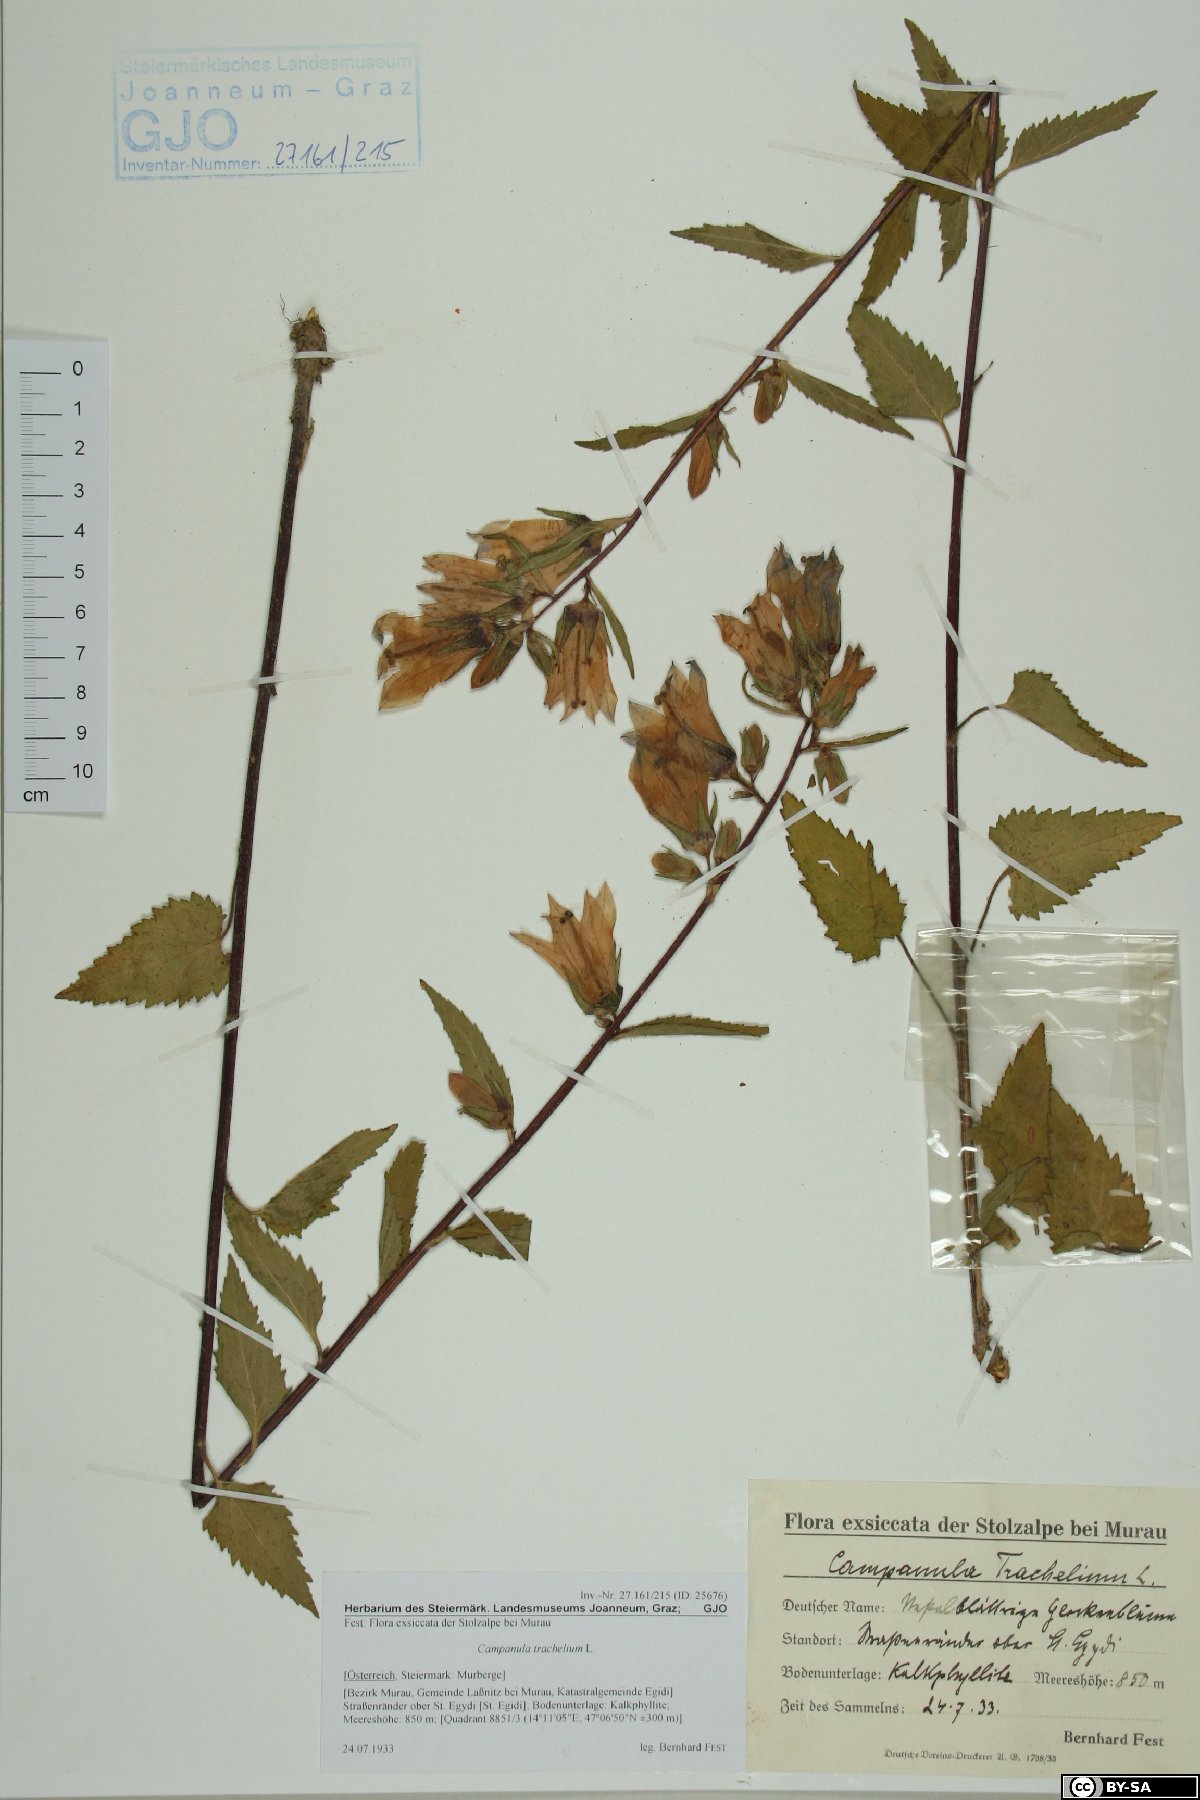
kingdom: Plantae
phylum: Tracheophyta
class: Magnoliopsida
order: Asterales
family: Campanulaceae
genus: Campanula
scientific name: Campanula trachelium
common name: Nettle-leaved bellflower
